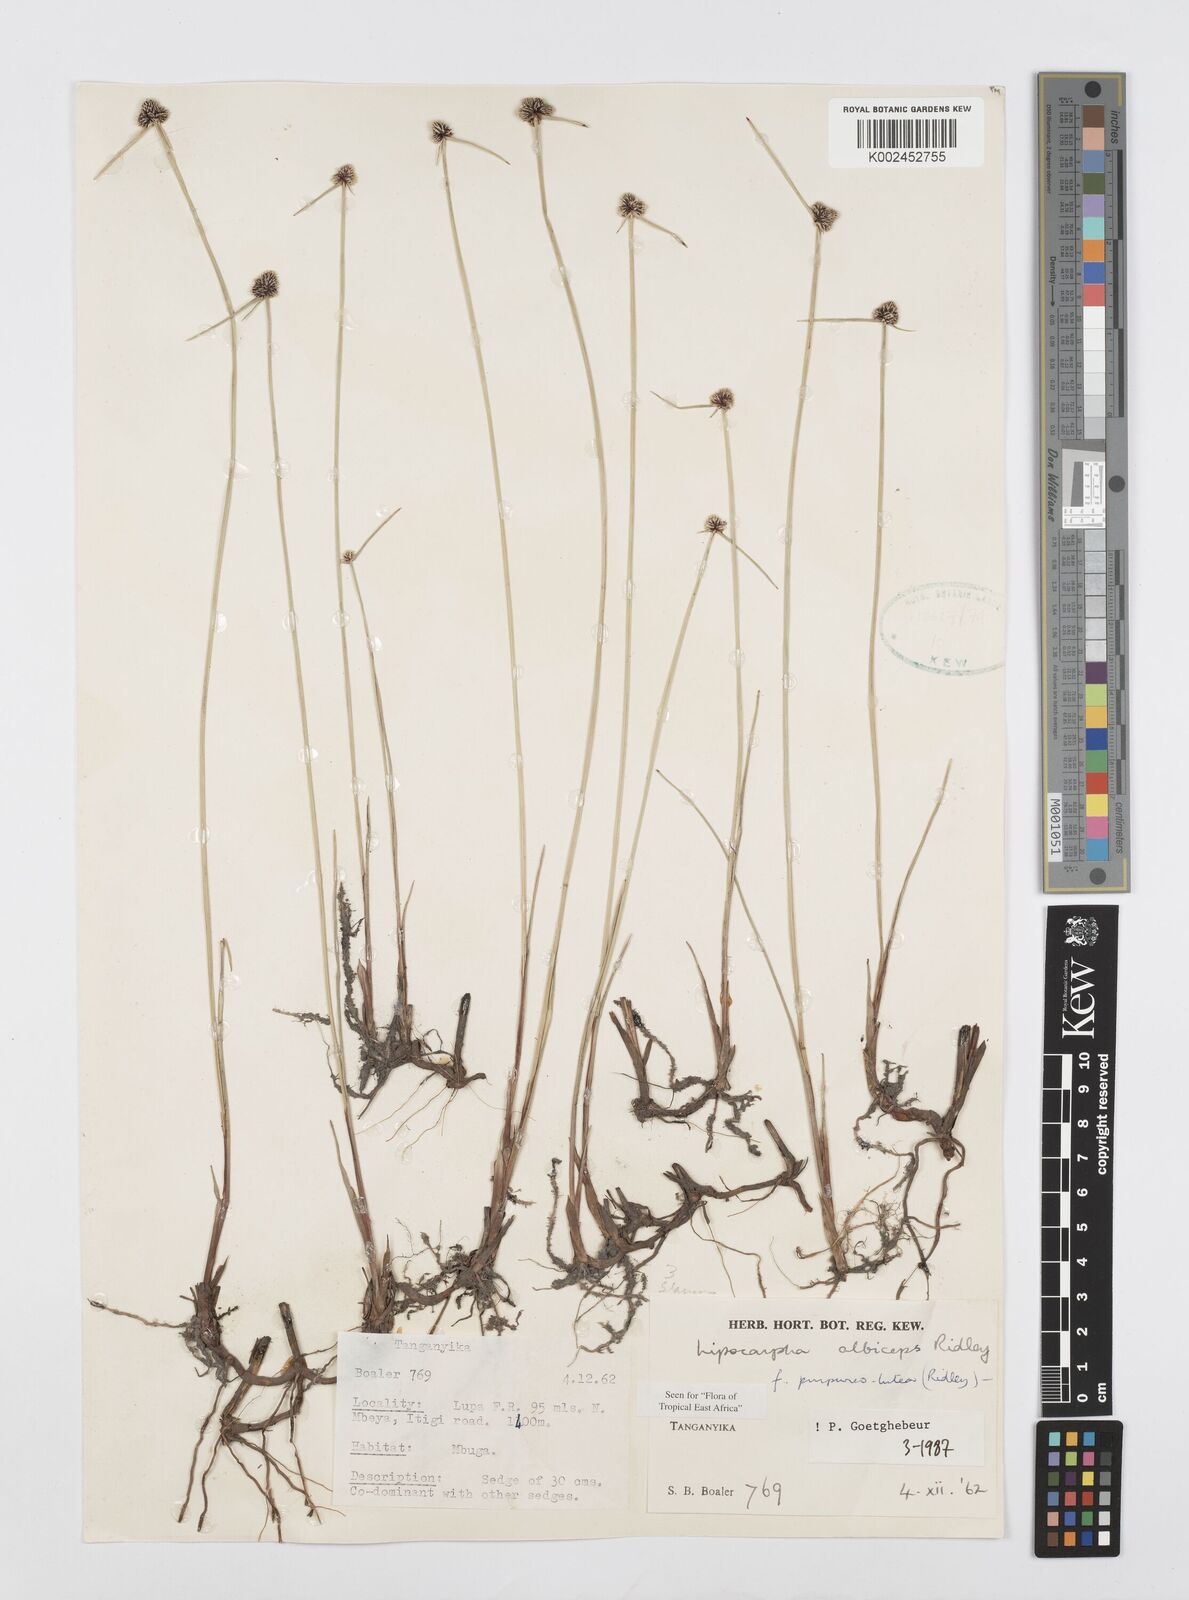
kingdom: Plantae
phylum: Tracheophyta
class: Liliopsida
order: Poales
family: Cyperaceae
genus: Cyperus
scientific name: Cyperus albiceps
